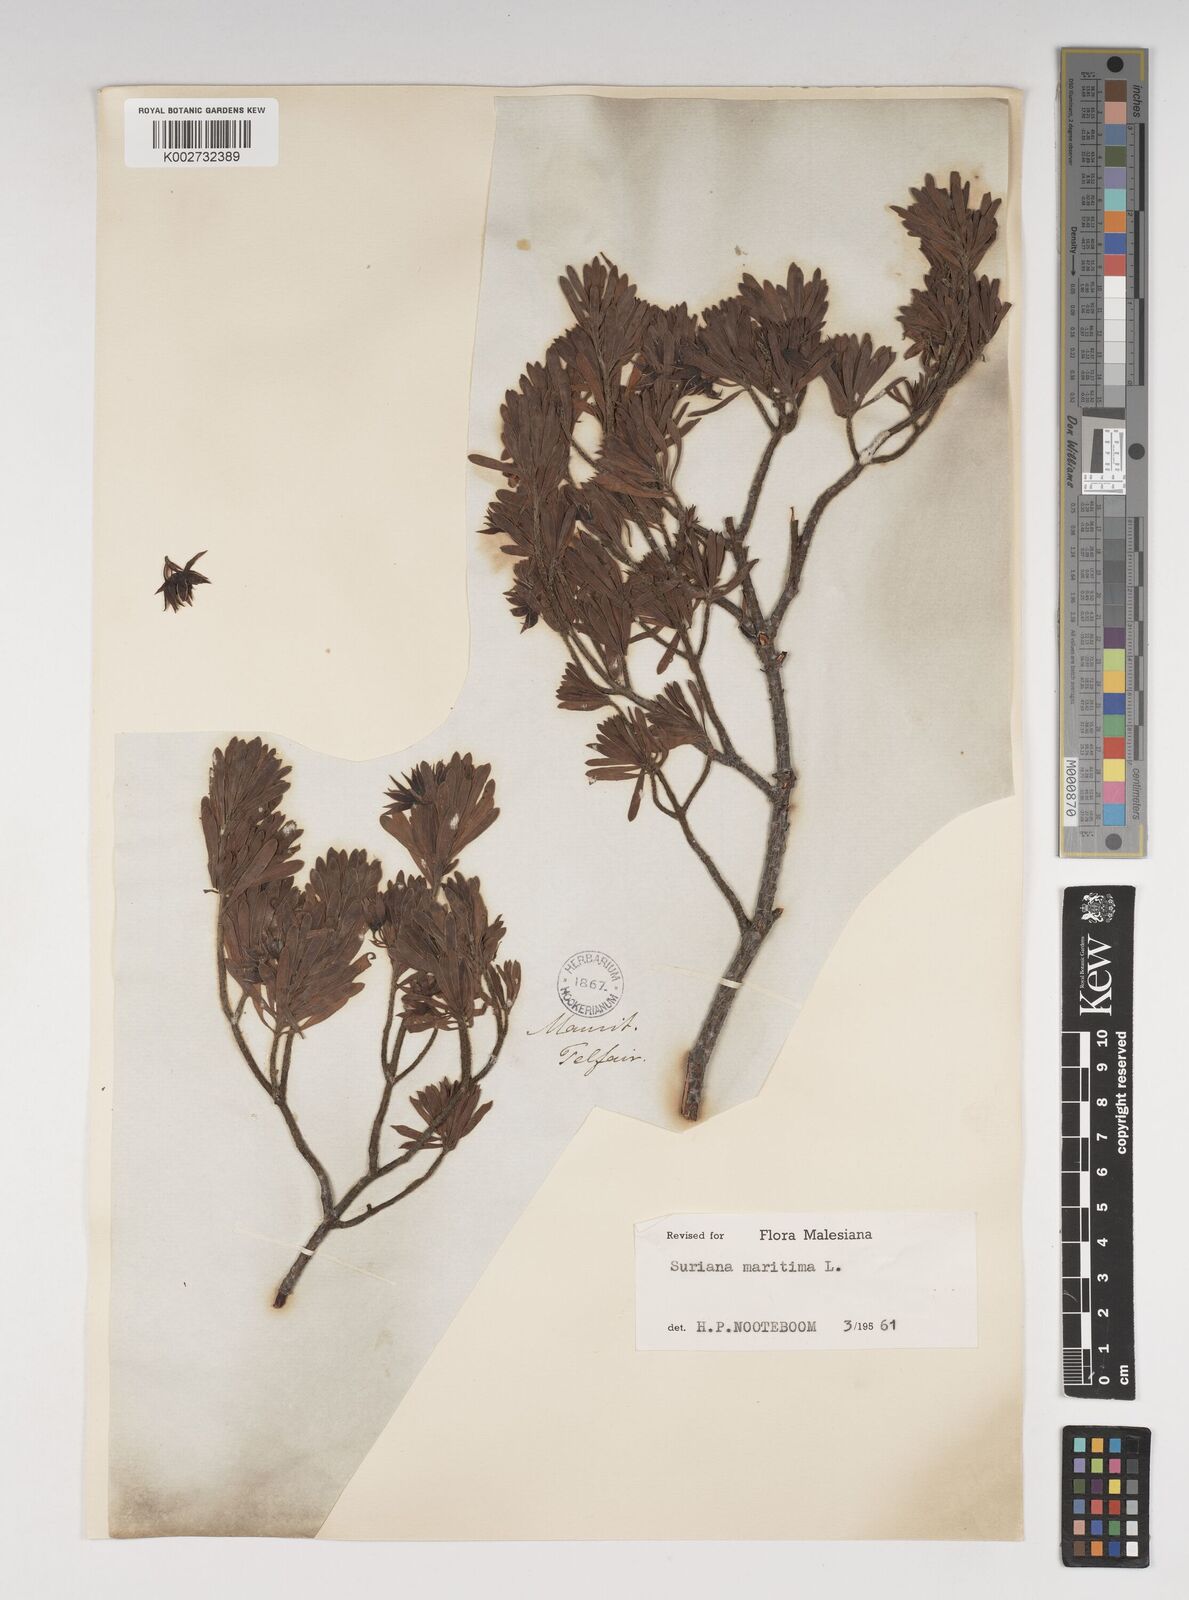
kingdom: Plantae
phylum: Tracheophyta
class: Magnoliopsida
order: Fabales
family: Surianaceae
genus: Suriana
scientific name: Suriana maritima
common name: Bay-cedar
